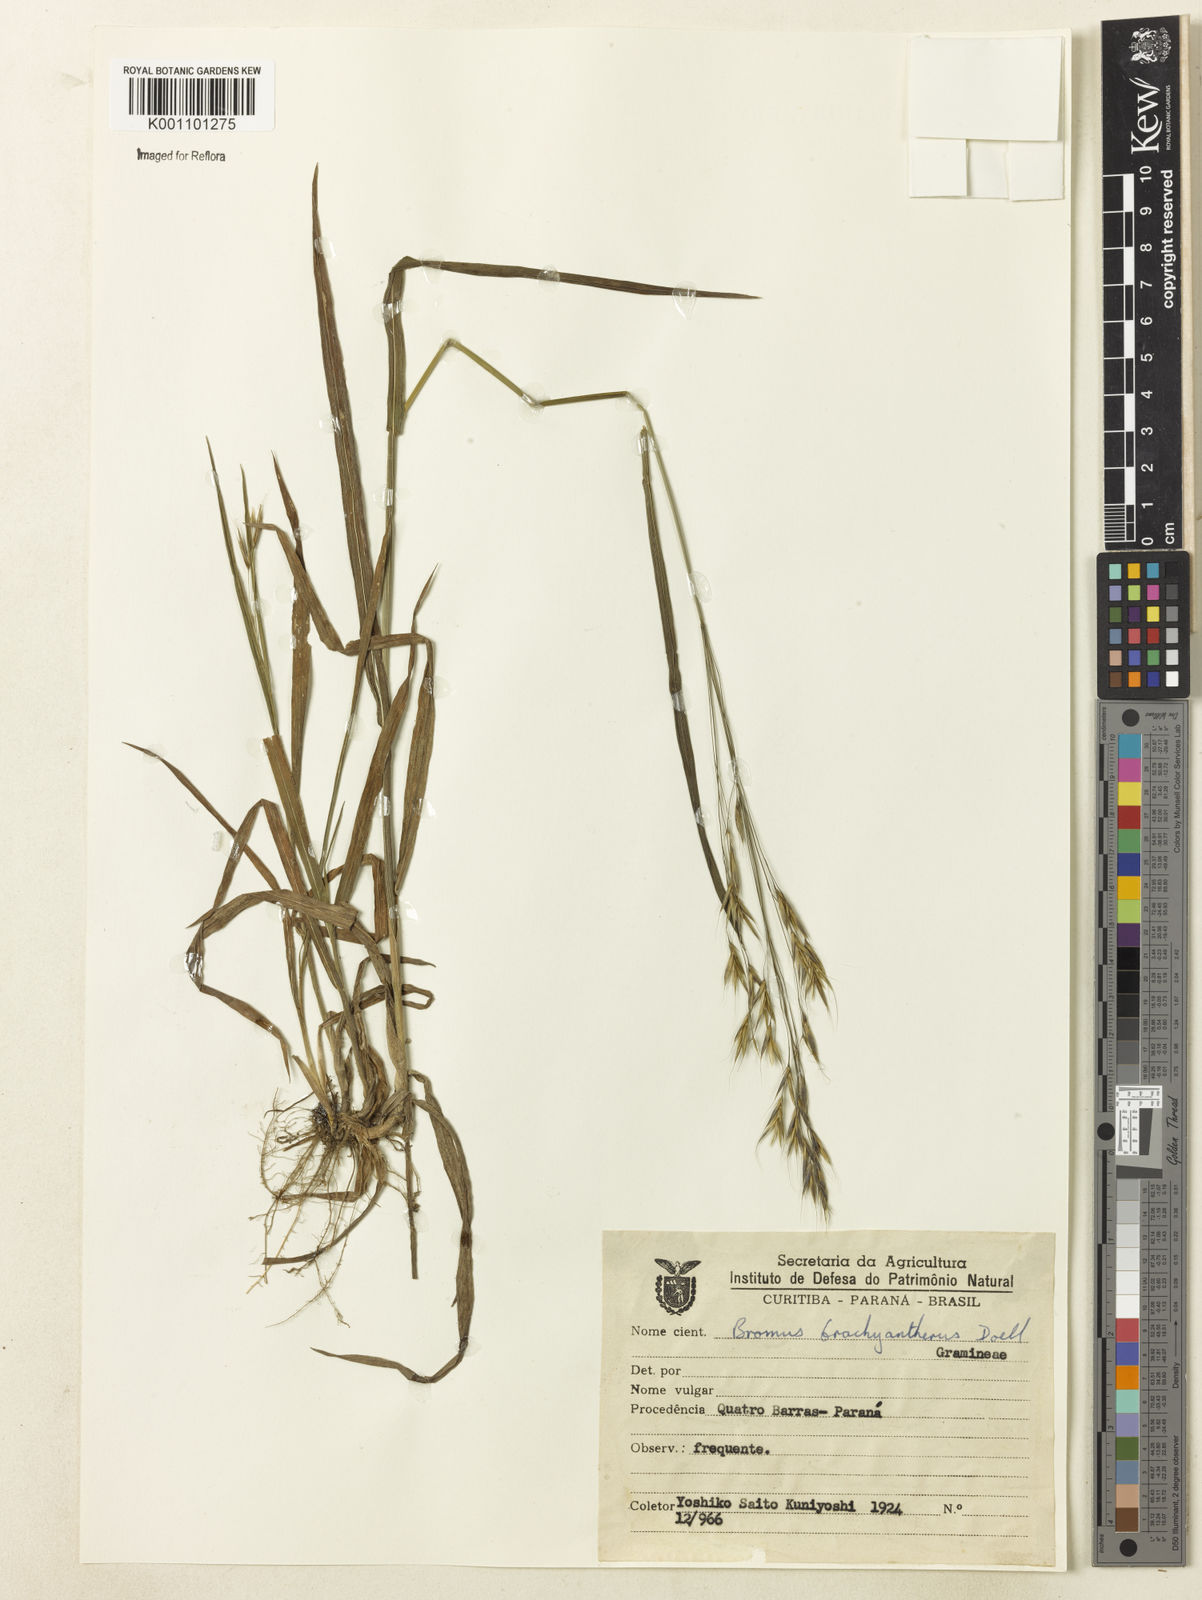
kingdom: Plantae
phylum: Tracheophyta
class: Liliopsida
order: Poales
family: Poaceae
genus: Bromus
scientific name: Bromus
